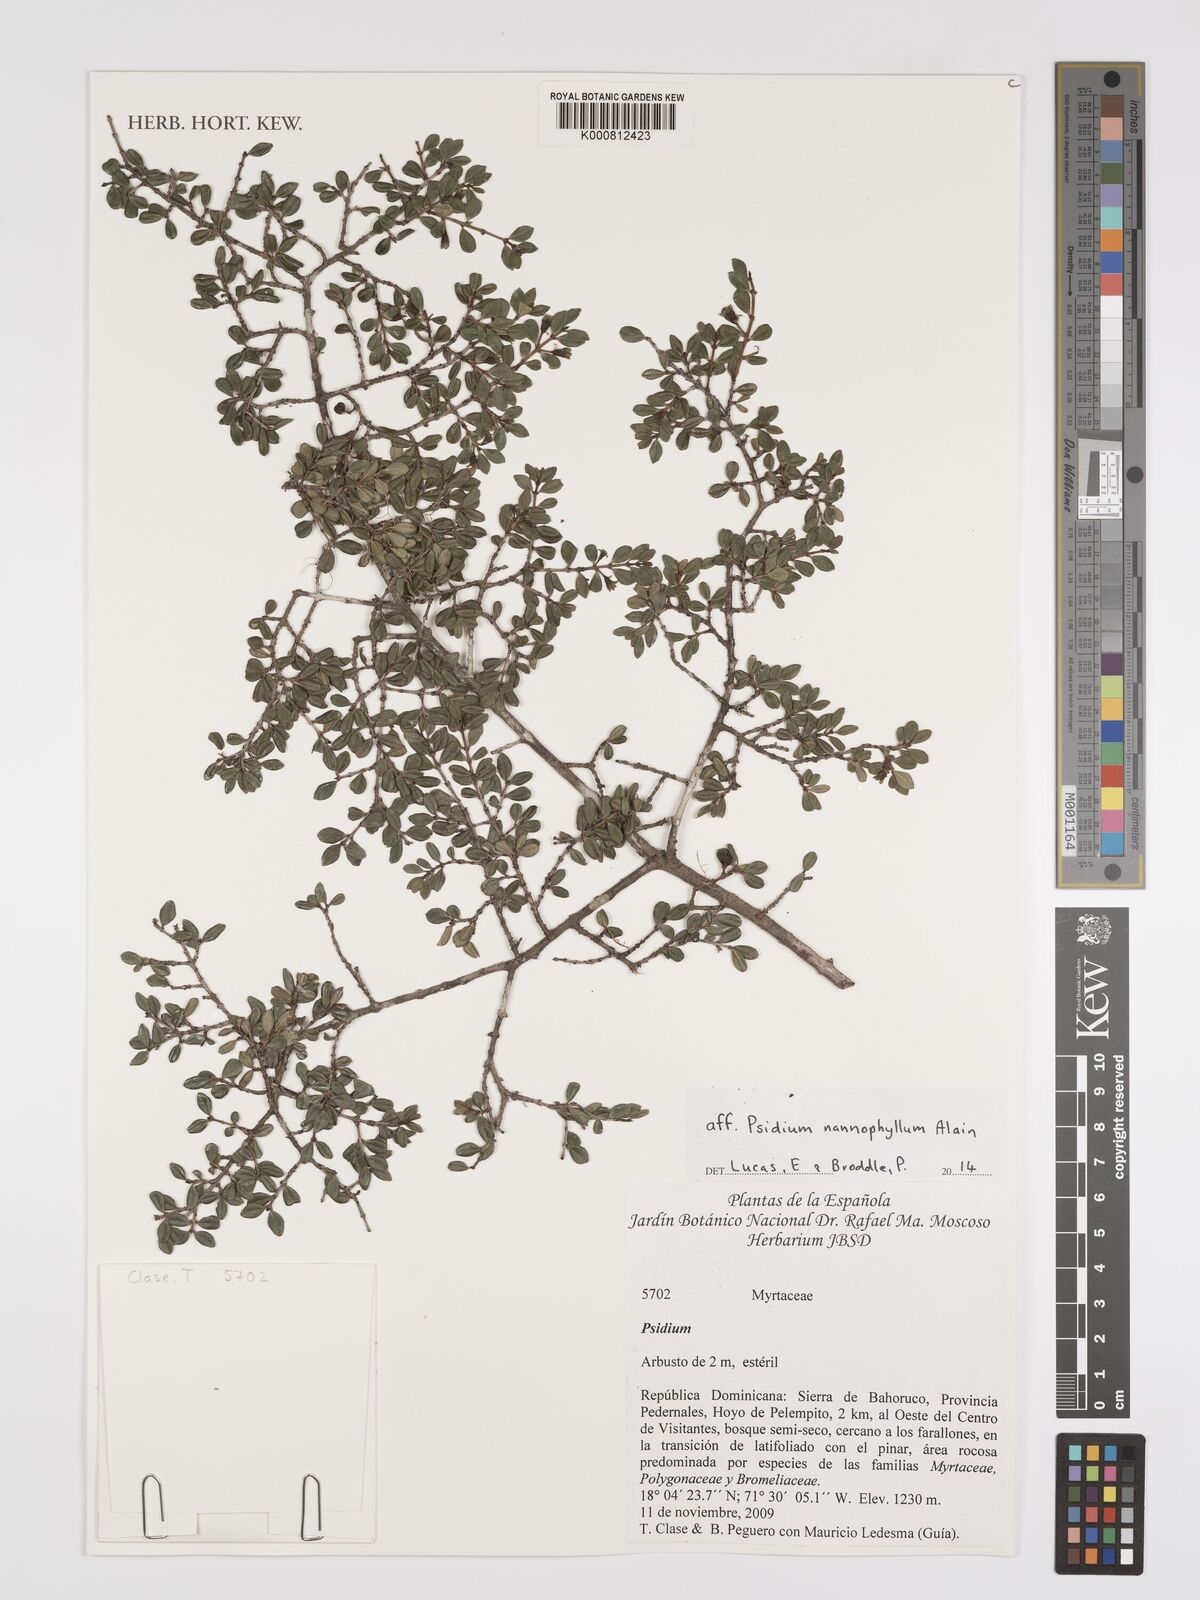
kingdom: Plantae
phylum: Tracheophyta
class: Magnoliopsida
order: Myrtales
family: Myrtaceae
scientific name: Myrtaceae
